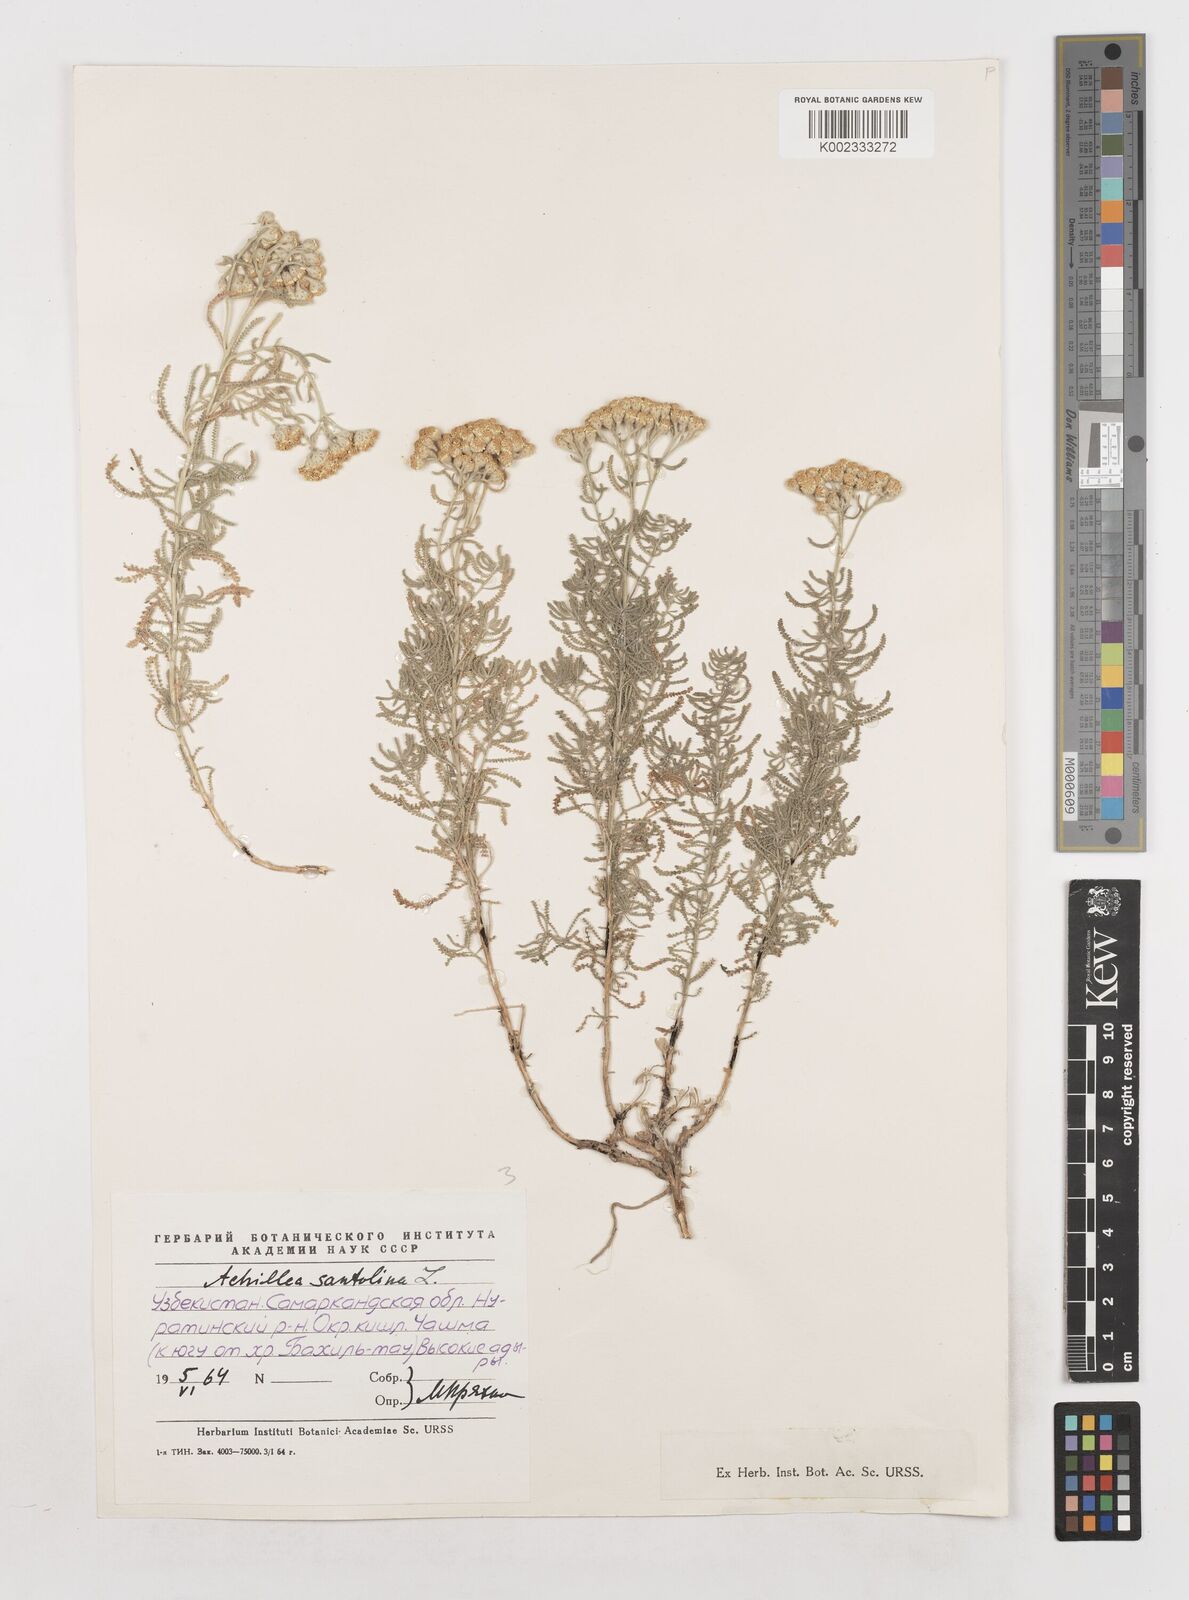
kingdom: Plantae
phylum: Tracheophyta
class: Magnoliopsida
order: Asterales
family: Asteraceae
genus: Achillea
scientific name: Achillea tenuifolia
